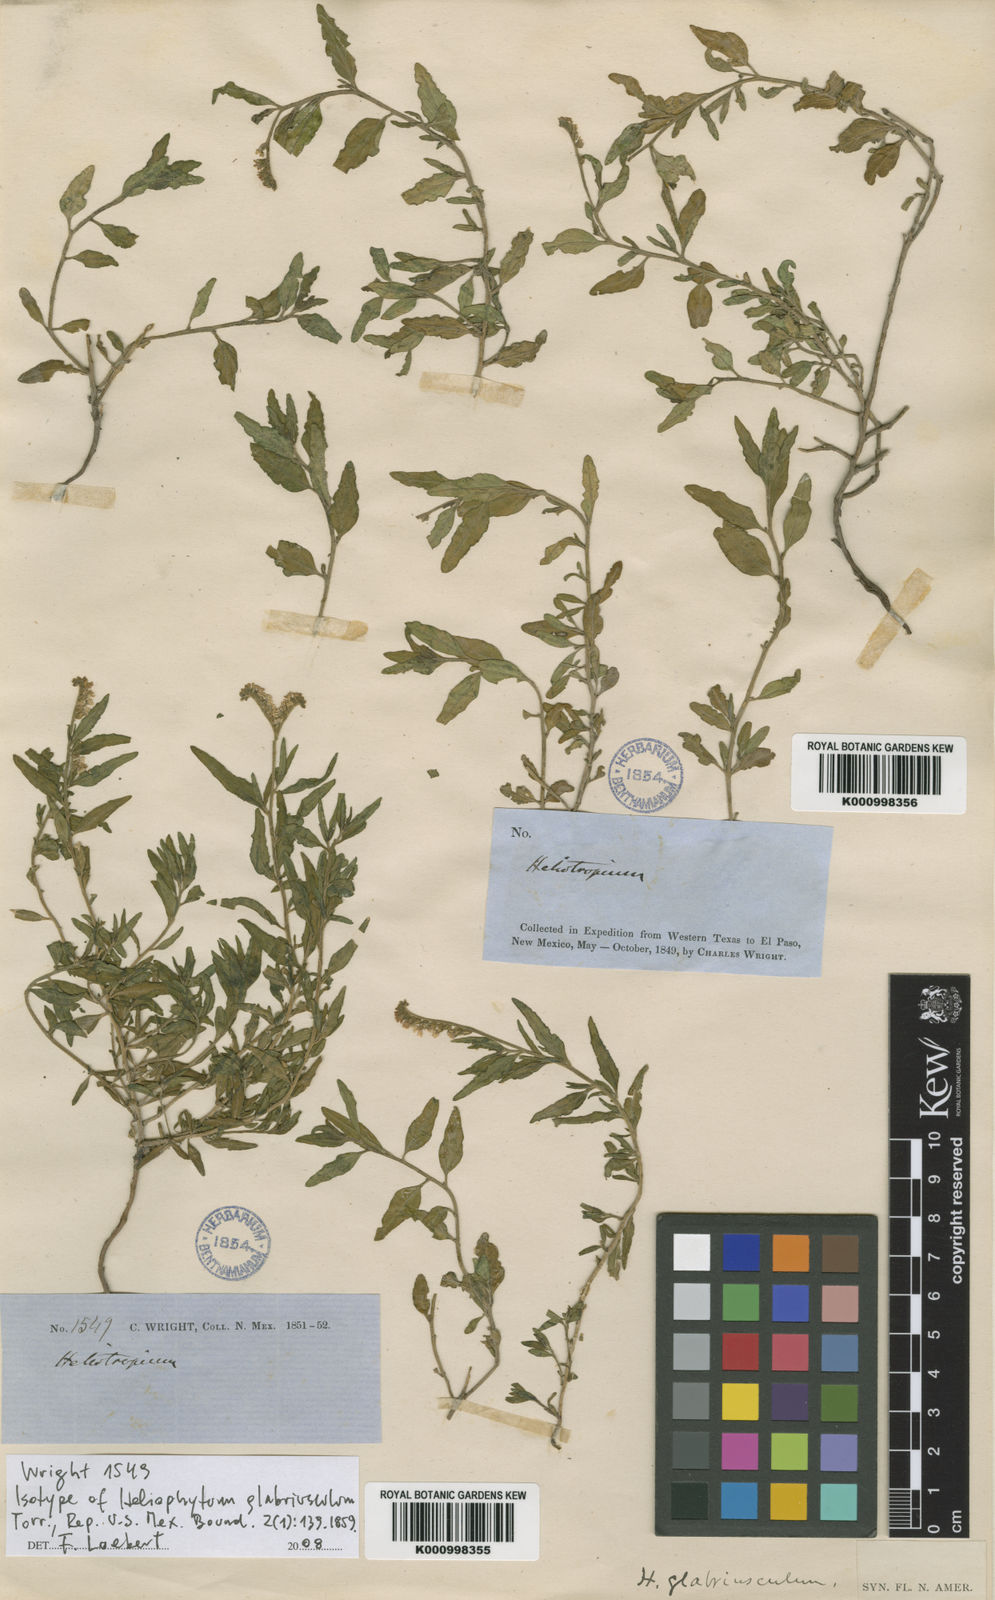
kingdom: Plantae
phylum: Tracheophyta
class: Magnoliopsida
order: Boraginales
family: Heliotropiaceae
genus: Heliotropium
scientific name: Heliotropium glabriusculum
